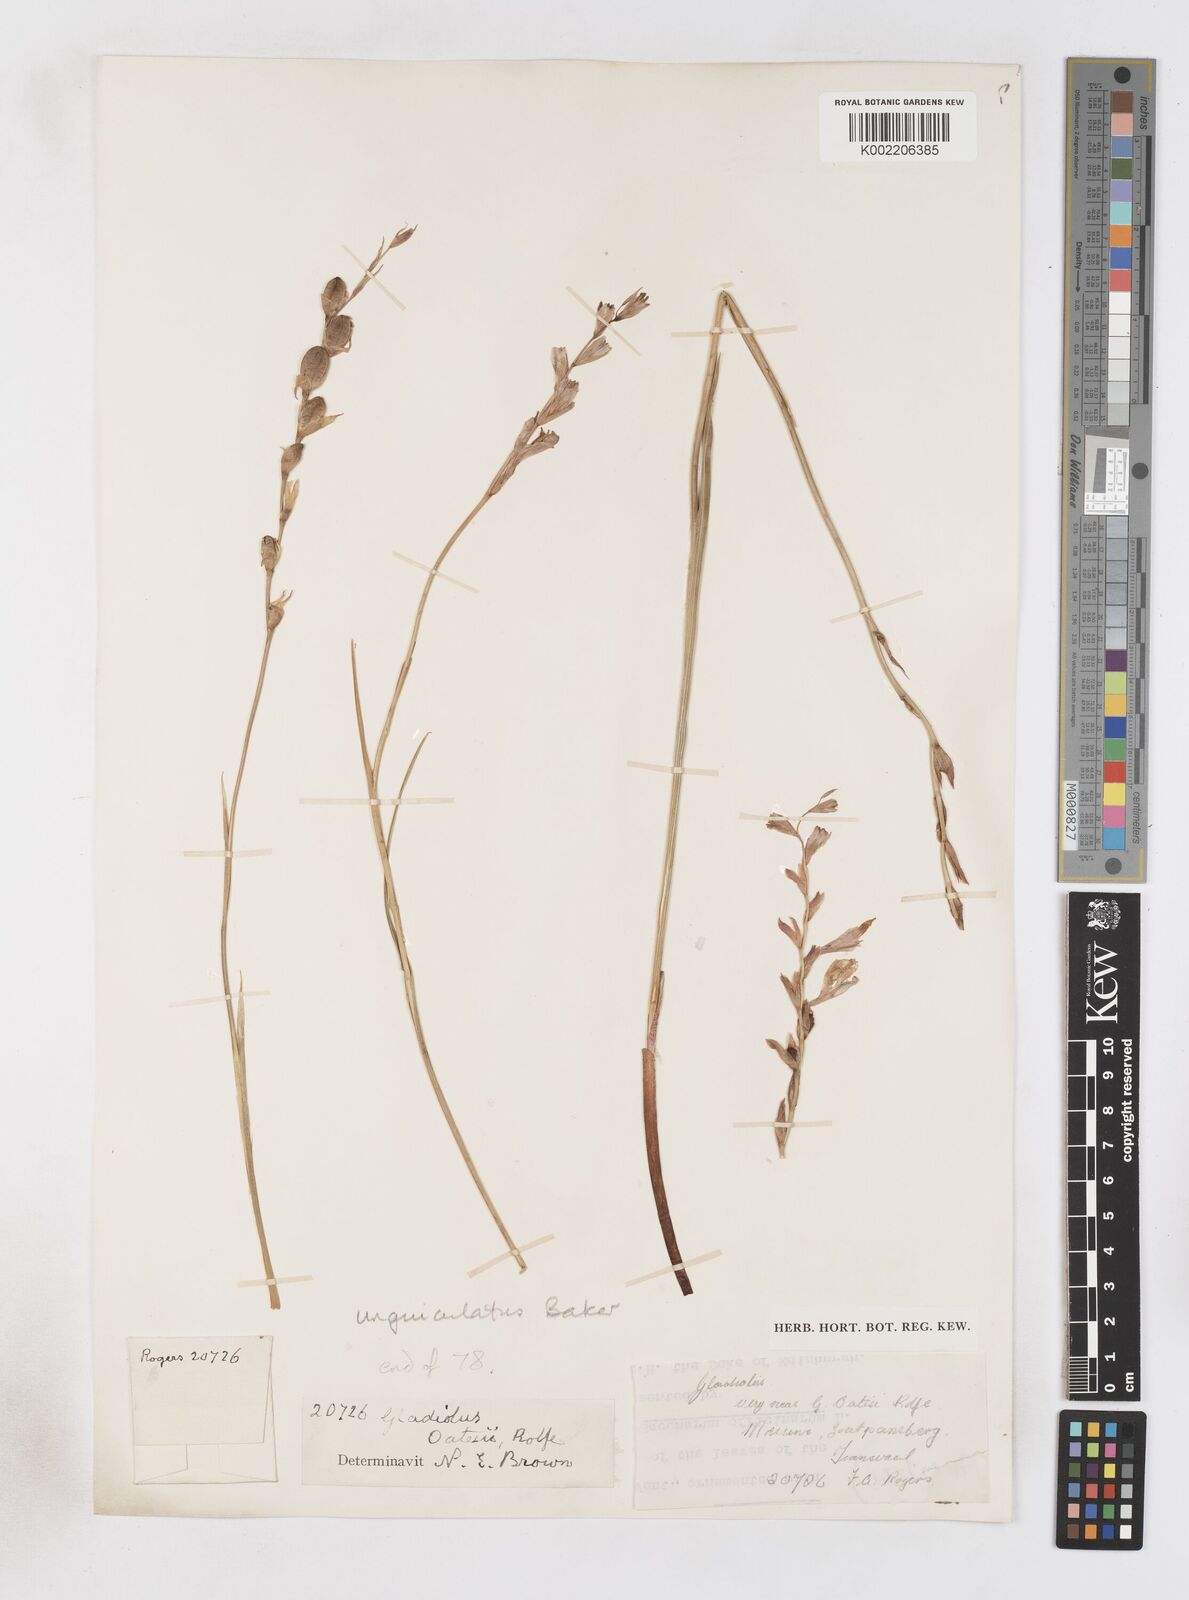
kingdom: Plantae
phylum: Tracheophyta
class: Liliopsida
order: Asparagales
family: Iridaceae
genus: Gladiolus
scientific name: Gladiolus unguiculatus
